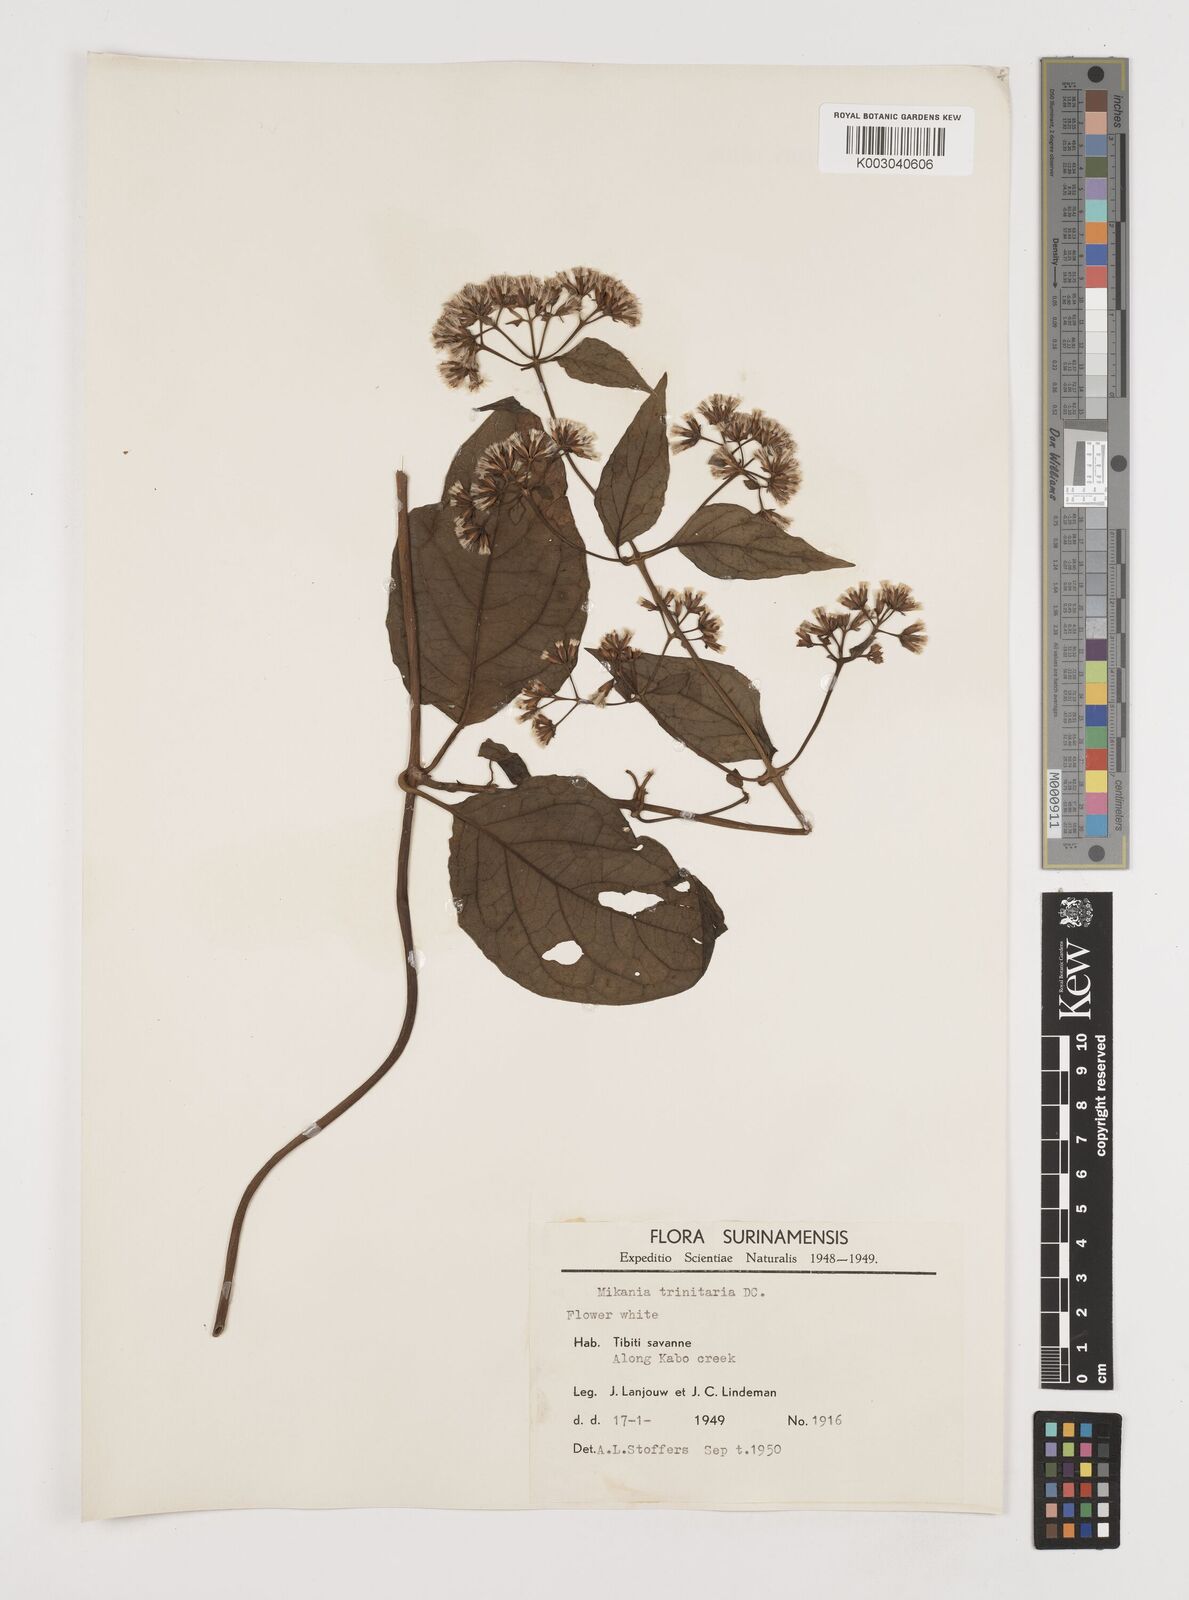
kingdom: Plantae
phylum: Tracheophyta
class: Magnoliopsida
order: Asterales
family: Asteraceae
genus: Mikania
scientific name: Mikania trinitaria
